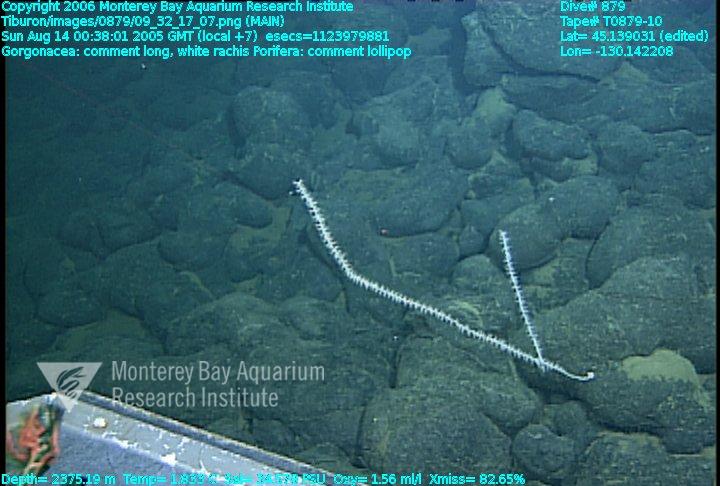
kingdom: Animalia
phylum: Porifera
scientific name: Porifera
